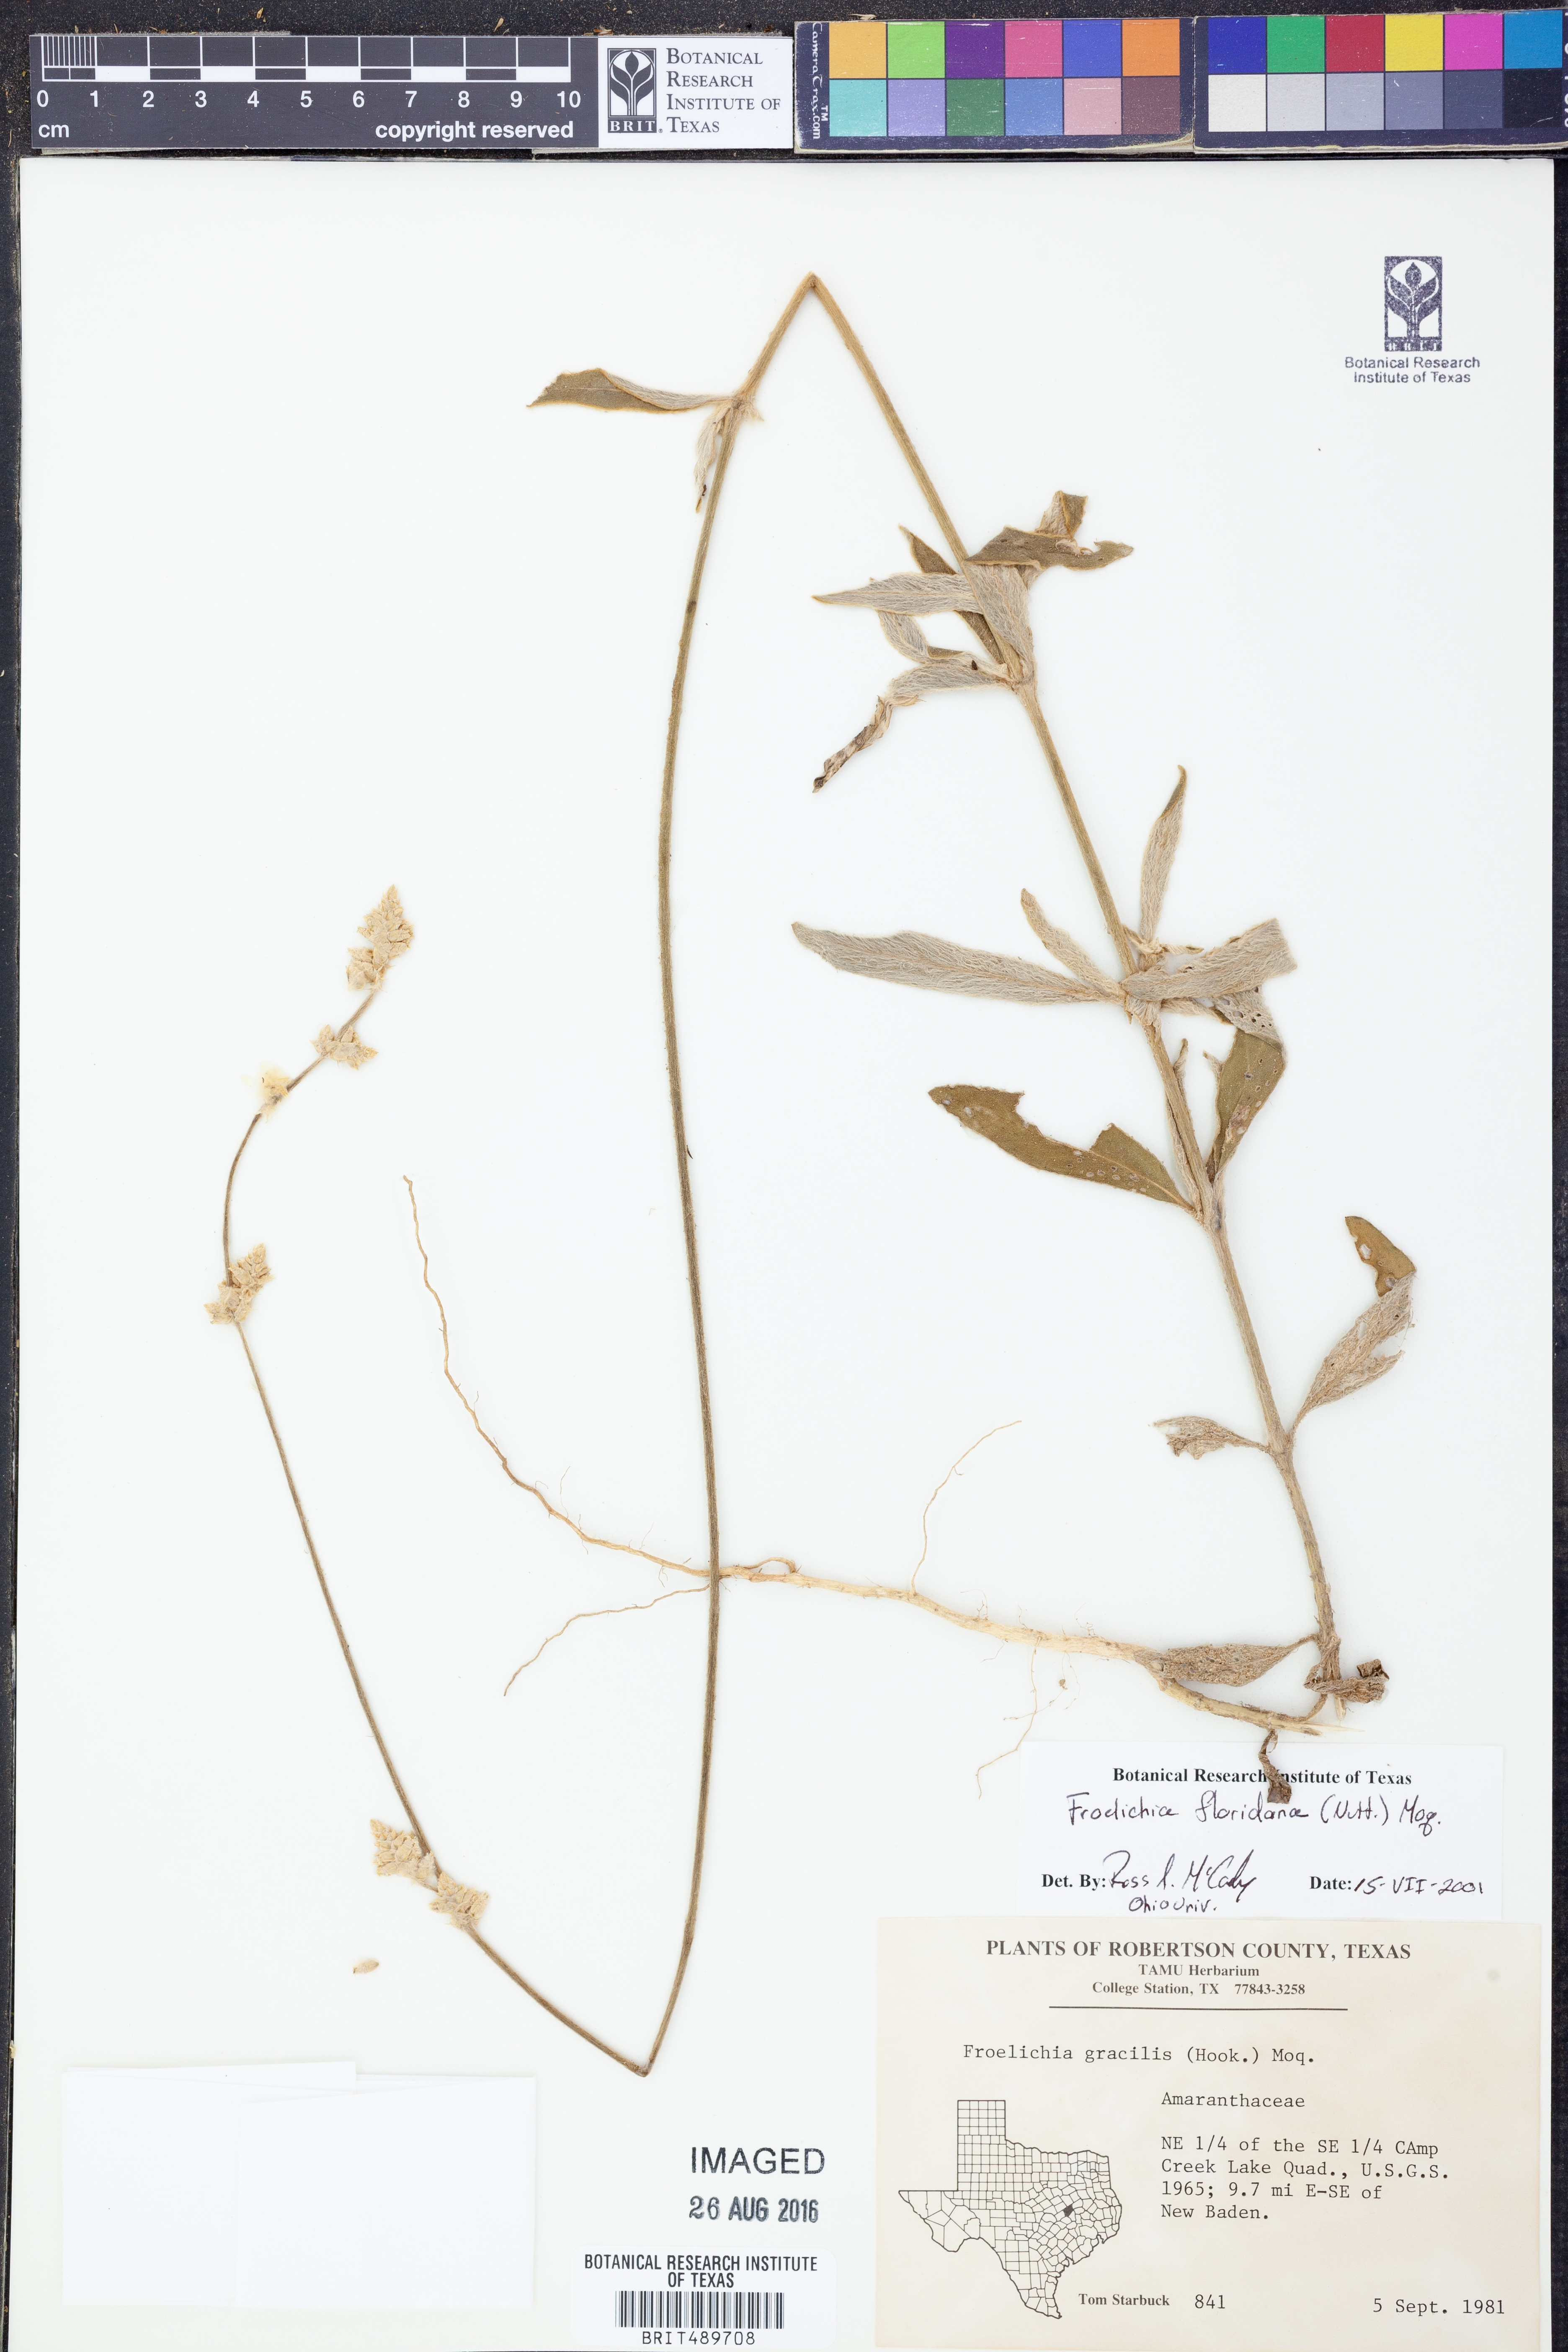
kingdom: Plantae
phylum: Tracheophyta
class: Magnoliopsida
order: Caryophyllales
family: Amaranthaceae
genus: Froelichia
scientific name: Froelichia floridana
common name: Florida snake-cotton
